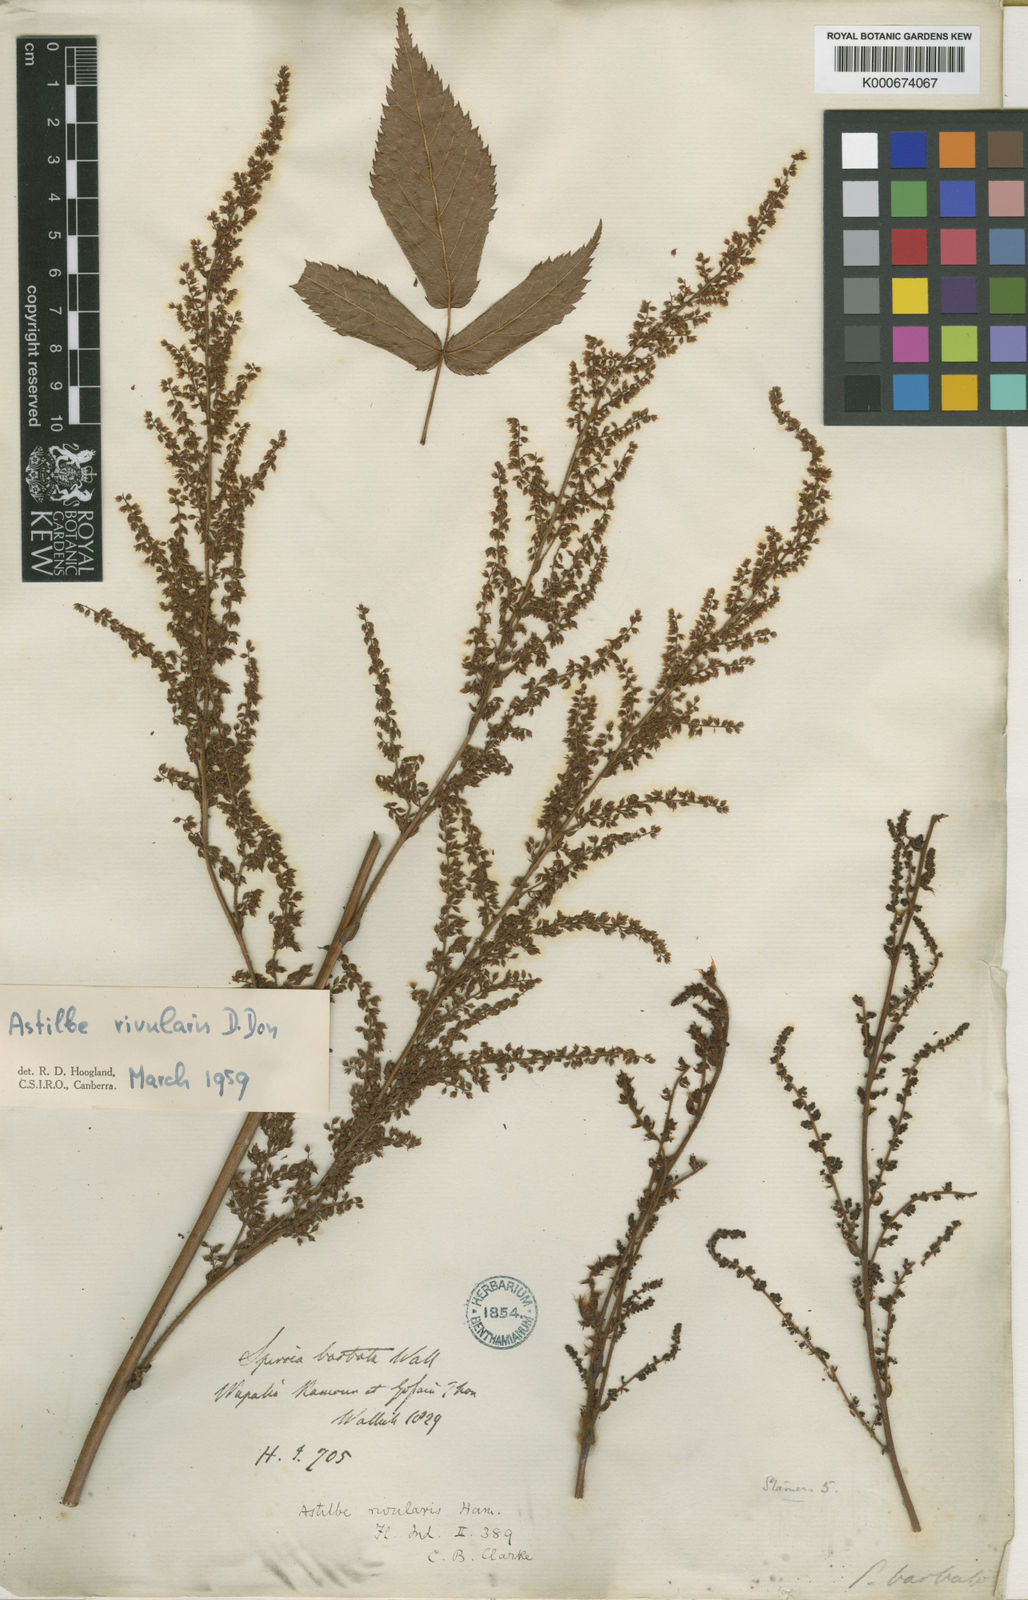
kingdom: Plantae
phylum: Tracheophyta
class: Magnoliopsida
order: Saxifragales
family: Saxifragaceae
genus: Astilbe
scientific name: Astilbe rivularis
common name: Tall false-buck's-beard
